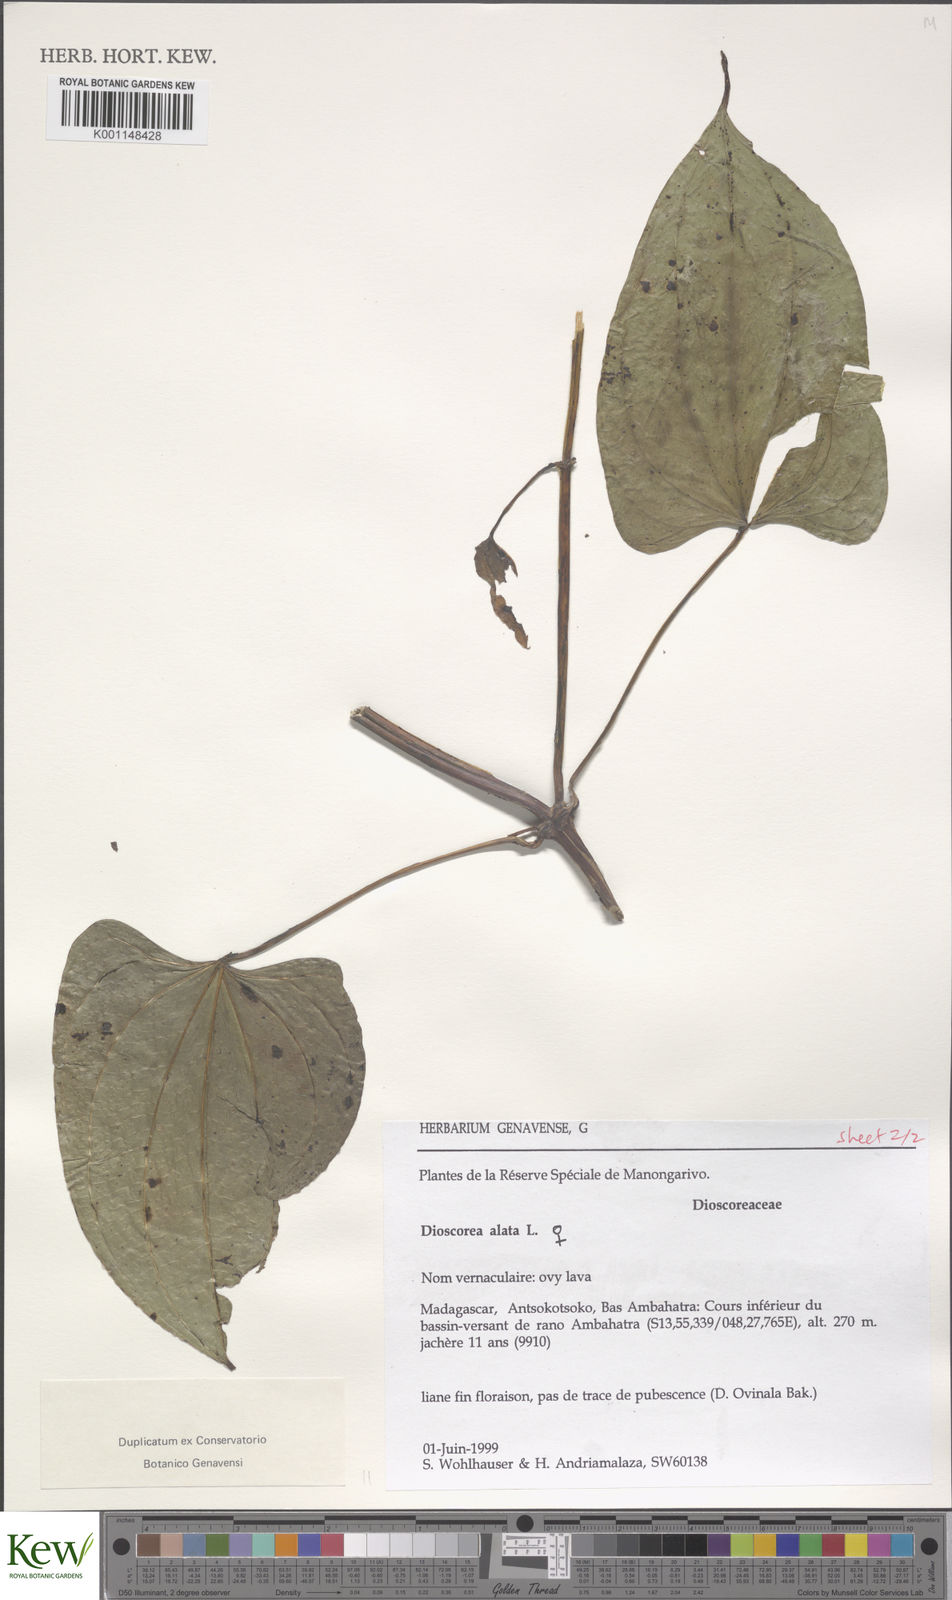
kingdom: Plantae
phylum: Tracheophyta
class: Liliopsida
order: Dioscoreales
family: Dioscoreaceae
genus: Dioscorea
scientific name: Dioscorea alata
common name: Water yam
